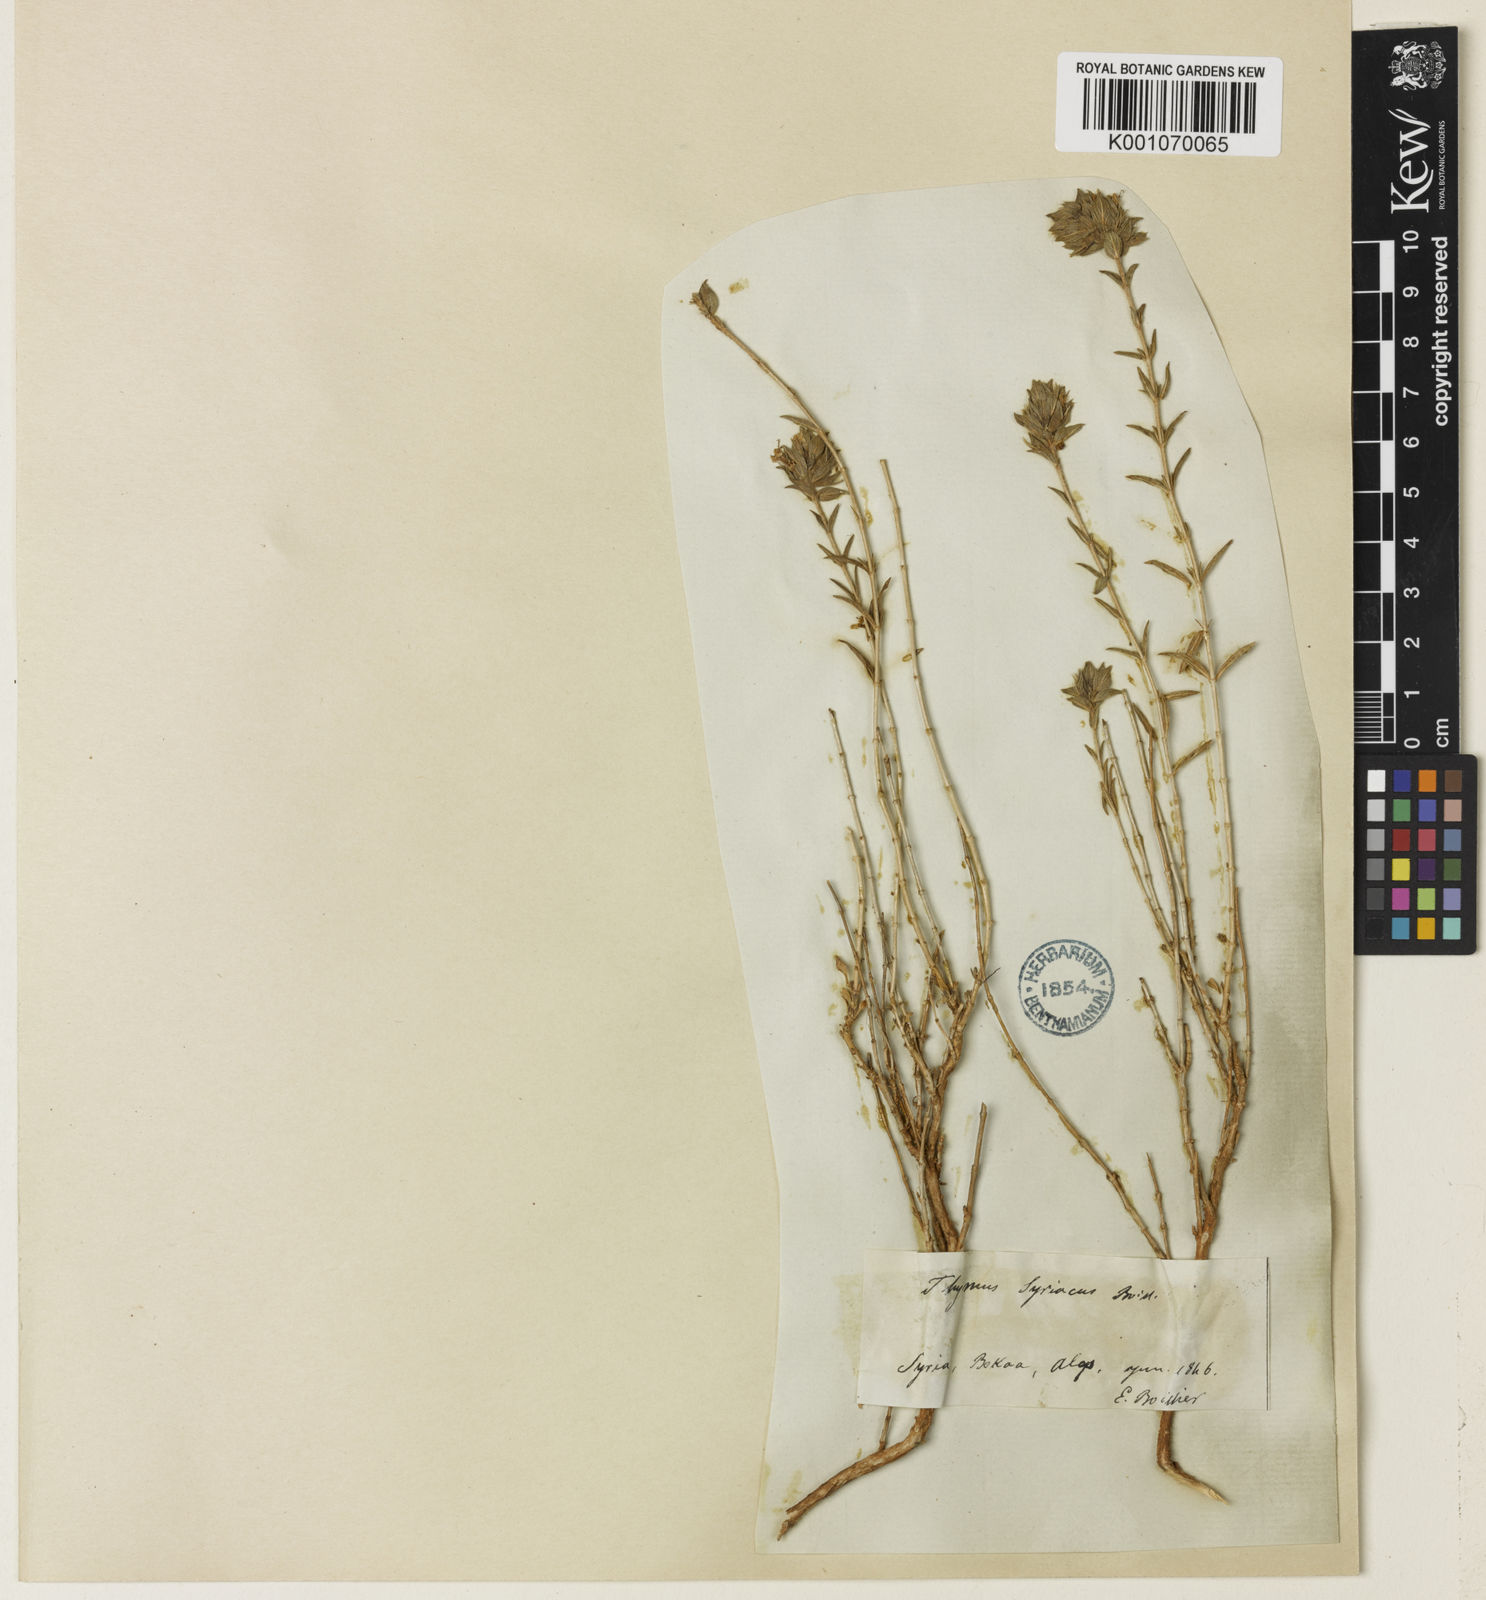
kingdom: Plantae
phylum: Tracheophyta
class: Magnoliopsida
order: Lamiales
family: Lamiaceae
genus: Thymus
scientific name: Thymus syriacus
